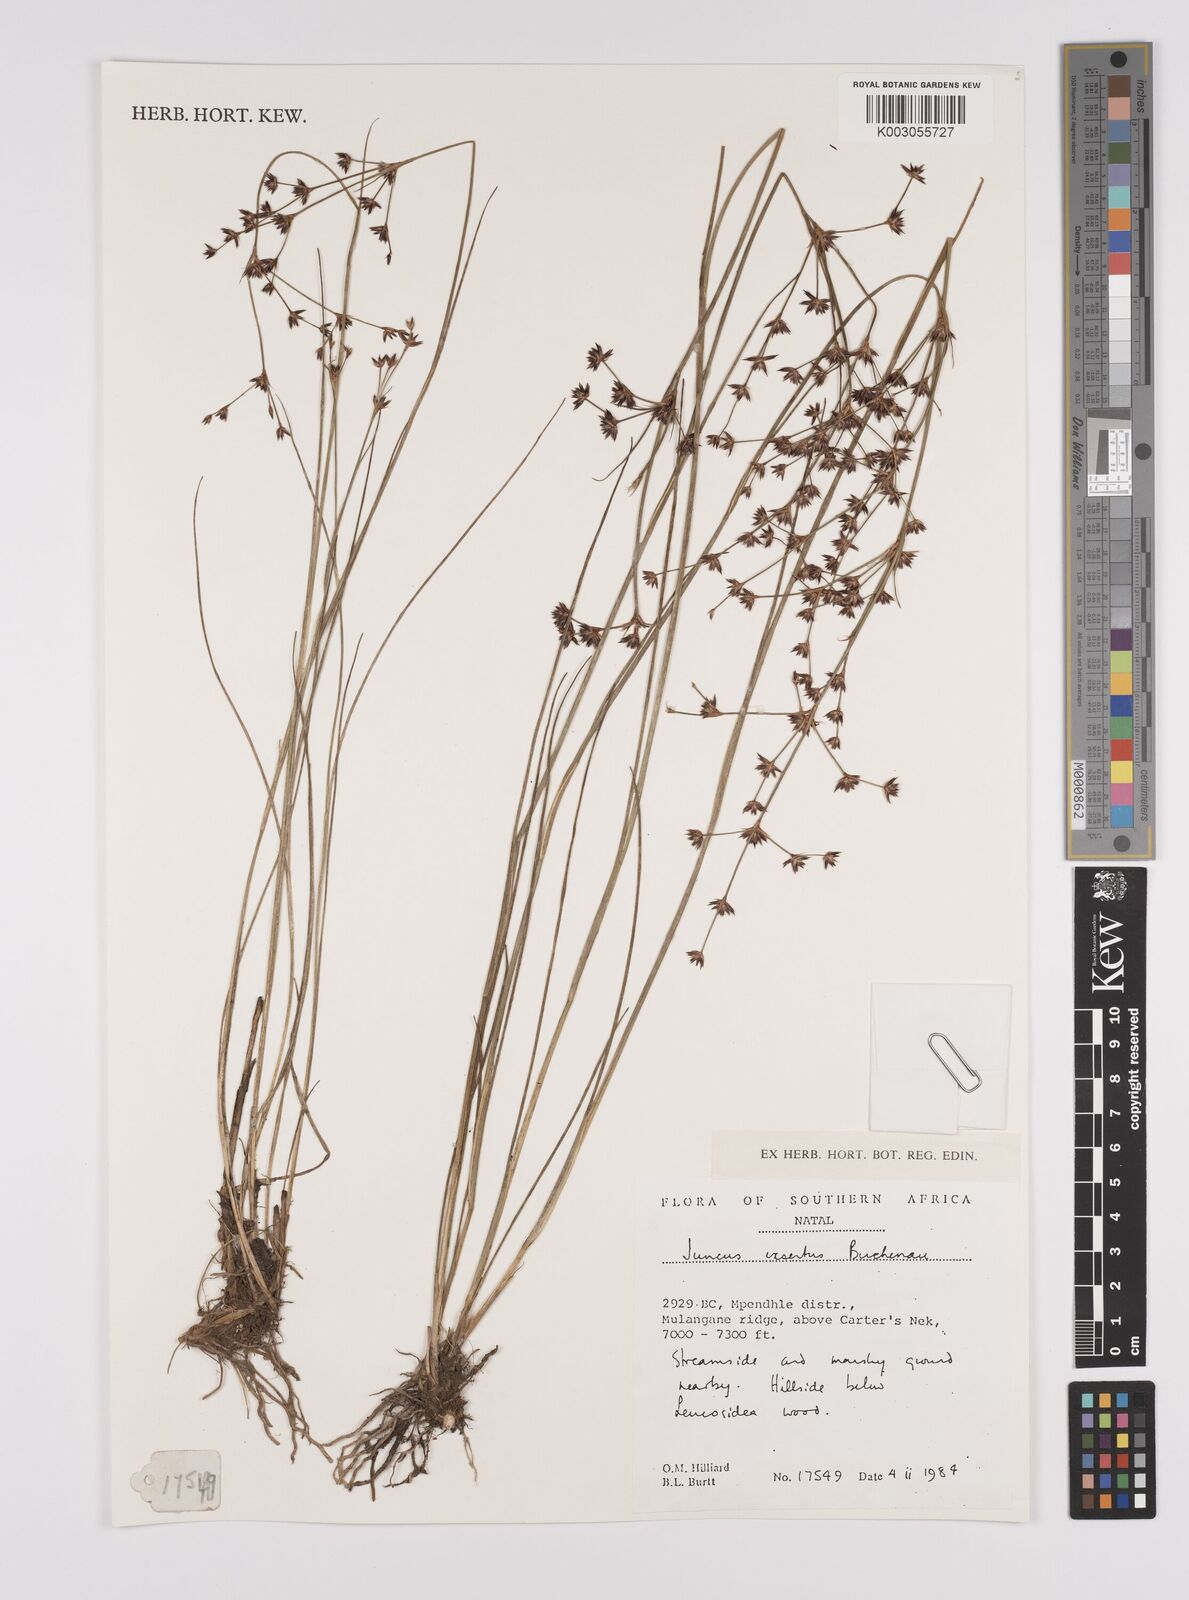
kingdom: Plantae
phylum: Tracheophyta
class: Liliopsida
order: Poales
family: Juncaceae
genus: Juncus
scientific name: Juncus exsertus
